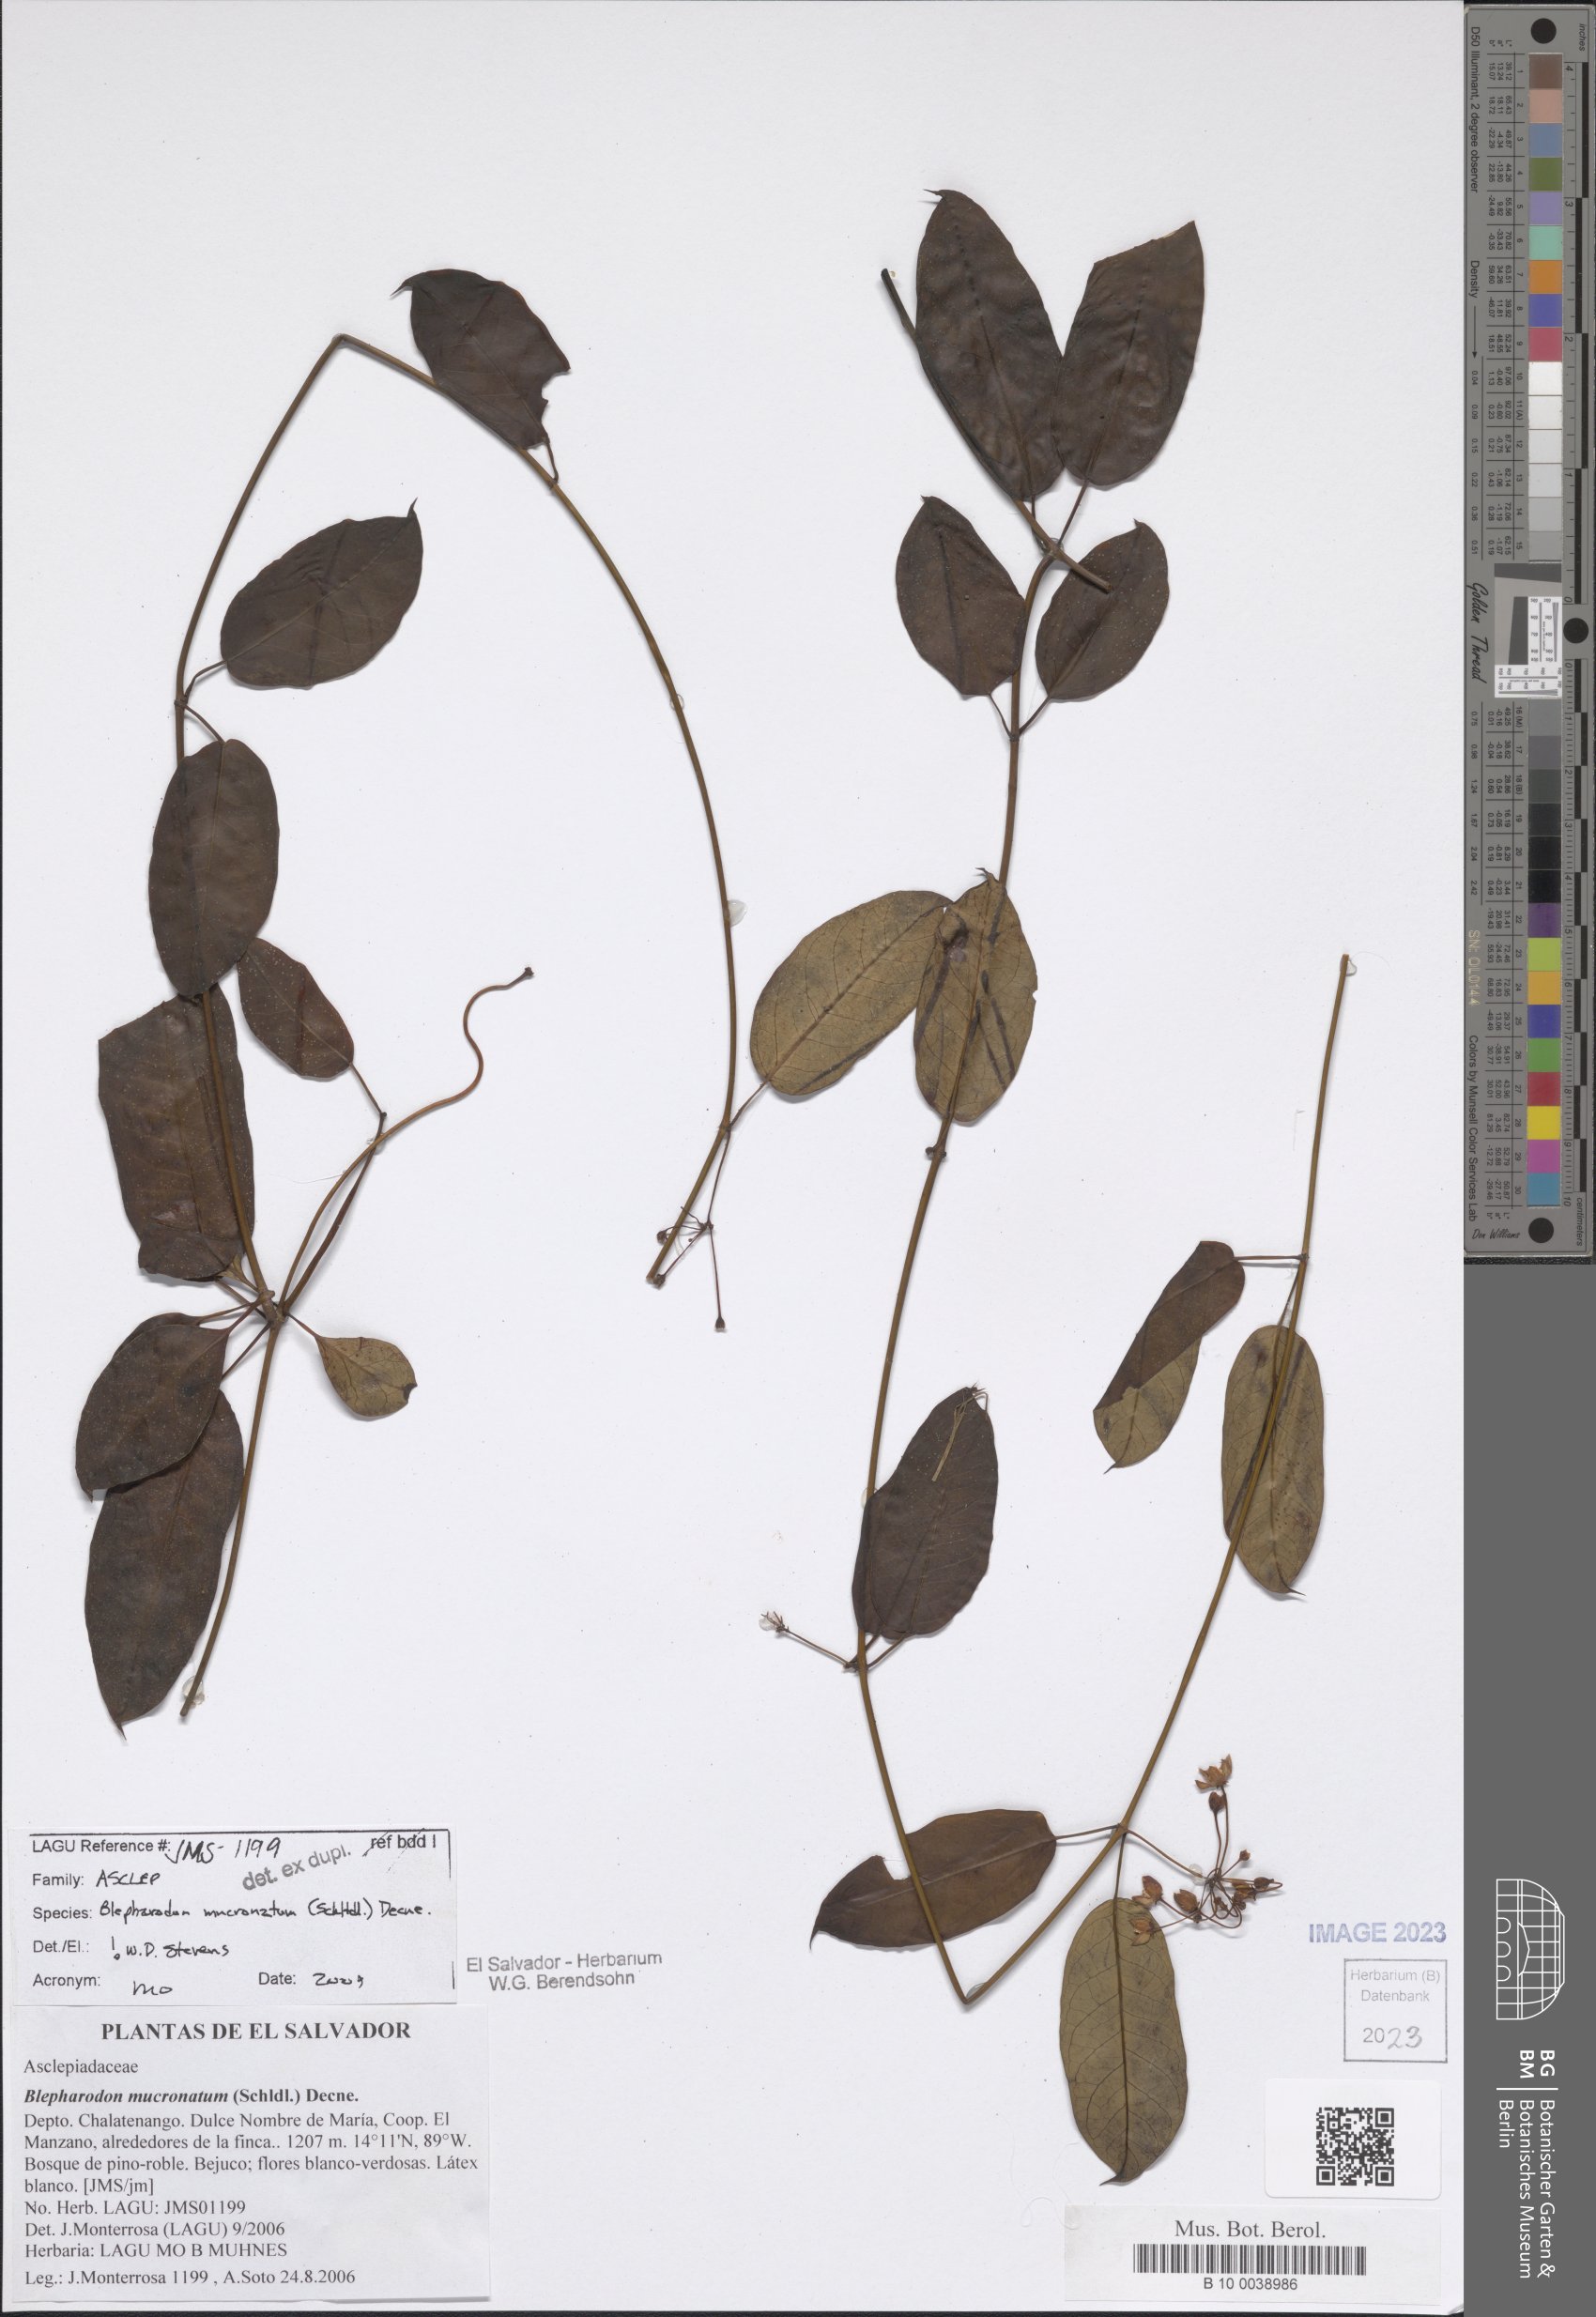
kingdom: Plantae
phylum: Tracheophyta
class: Magnoliopsida
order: Gentianales
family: Apocynaceae
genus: Vailia
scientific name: Vailia anomala
